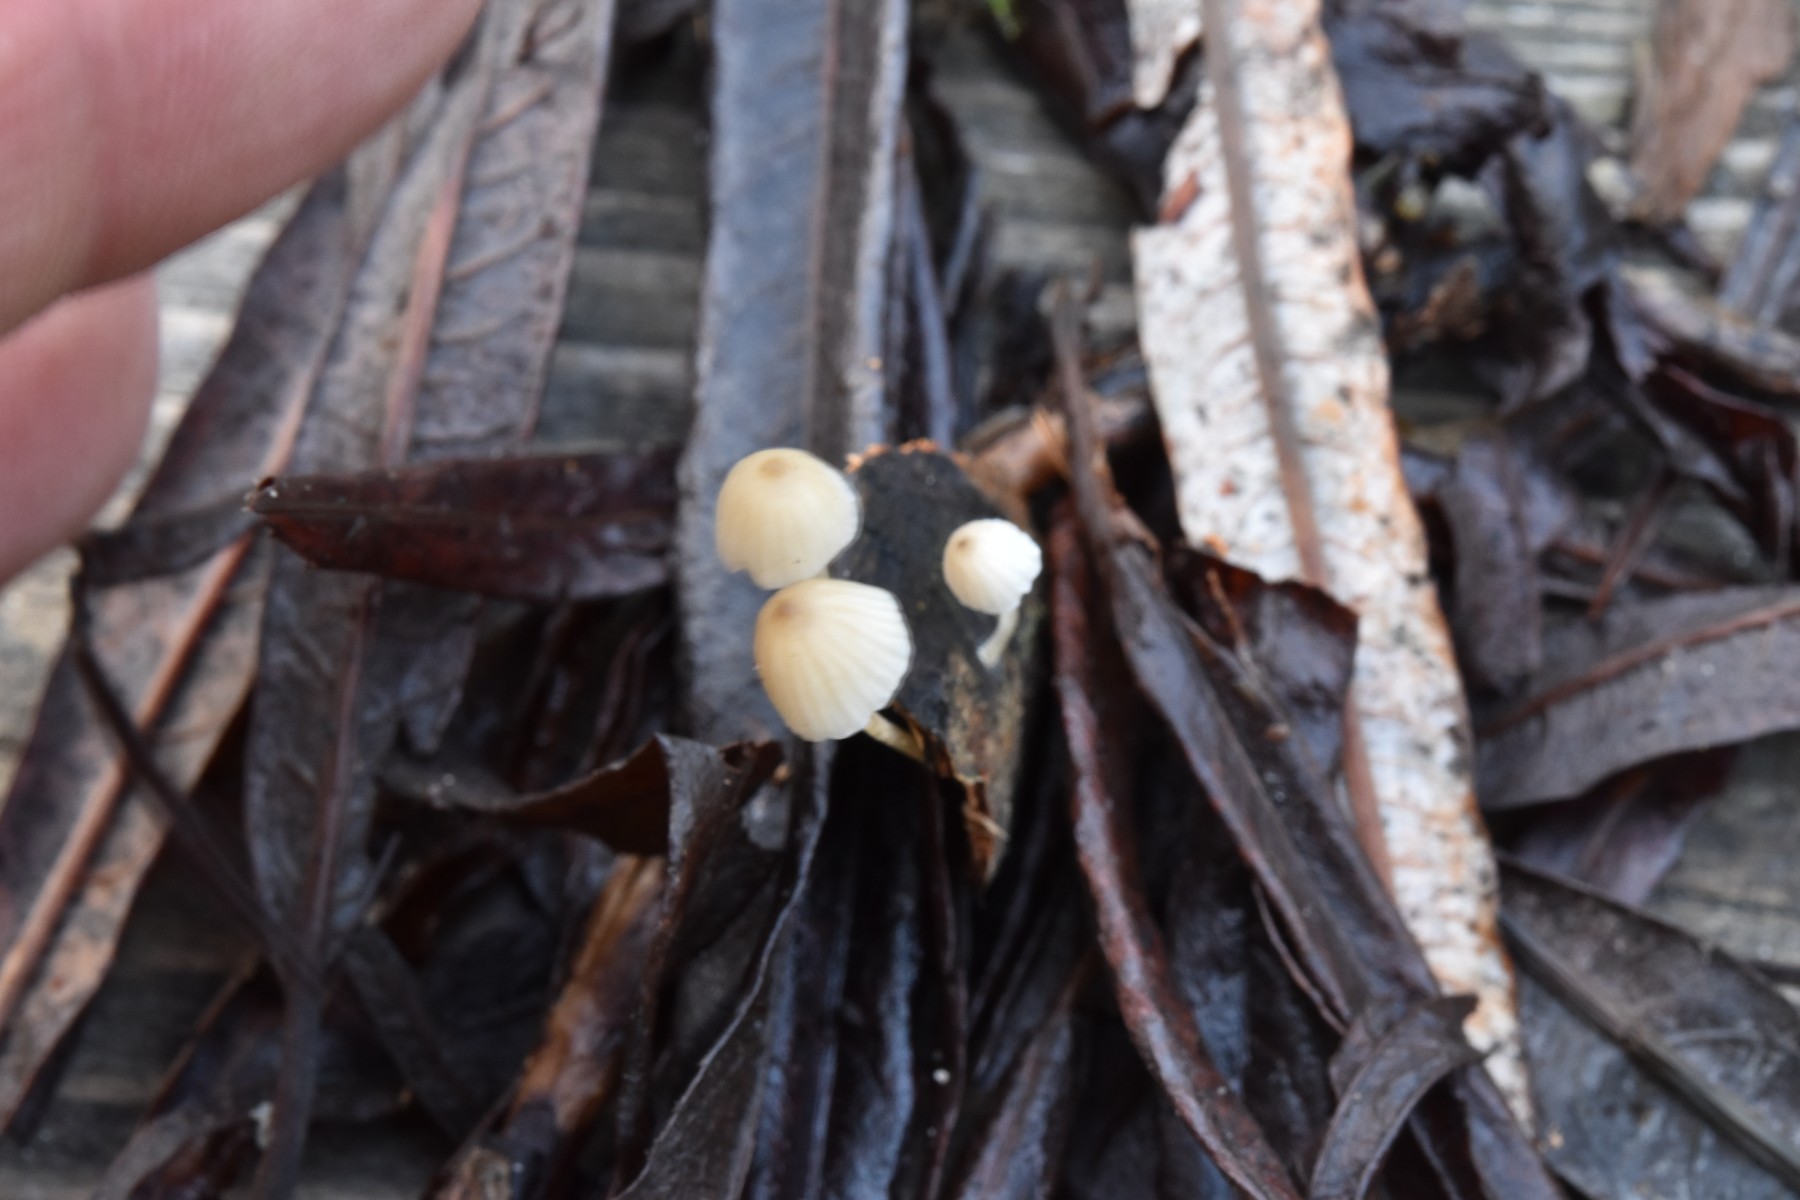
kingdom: Fungi
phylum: Basidiomycota
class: Agaricomycetes
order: Agaricales
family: Porotheleaceae
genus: Phloeomana
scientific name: Phloeomana speirea
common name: kvist-huesvamp
